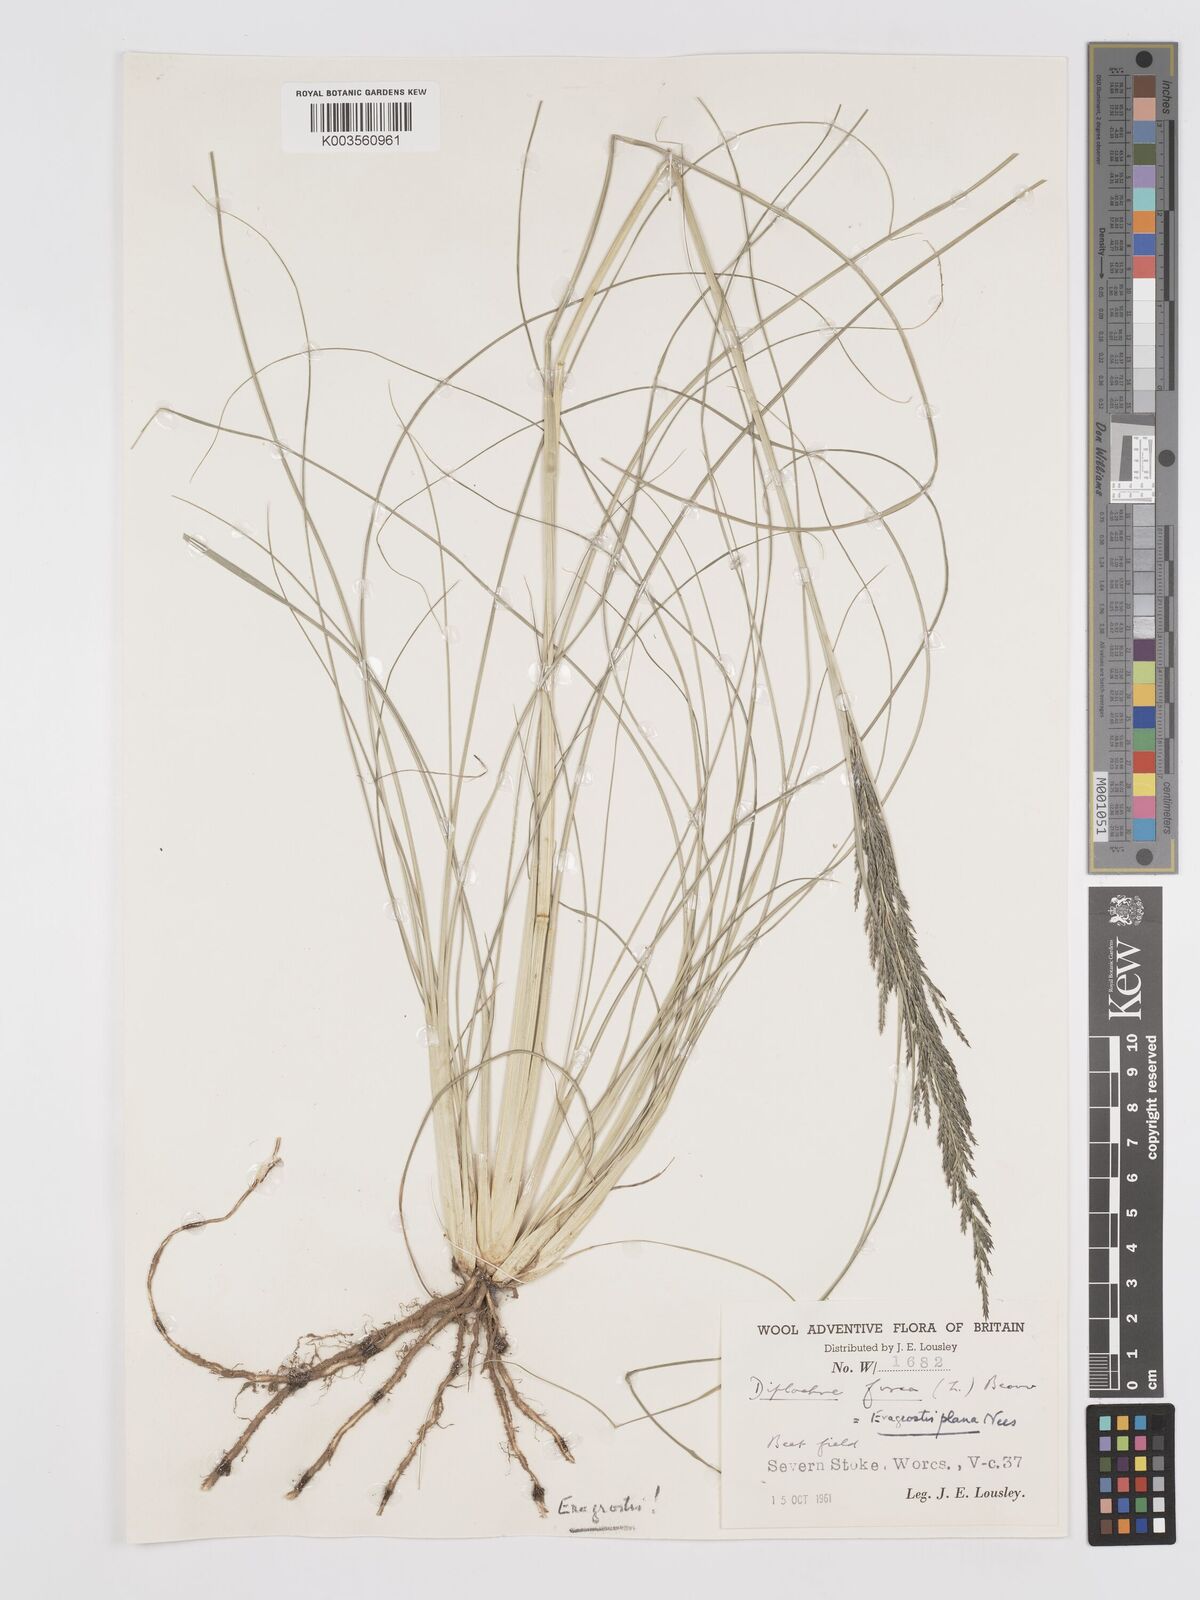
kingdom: Plantae
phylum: Tracheophyta
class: Liliopsida
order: Poales
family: Poaceae
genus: Eragrostis
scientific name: Eragrostis plana
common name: South african lovegrass
